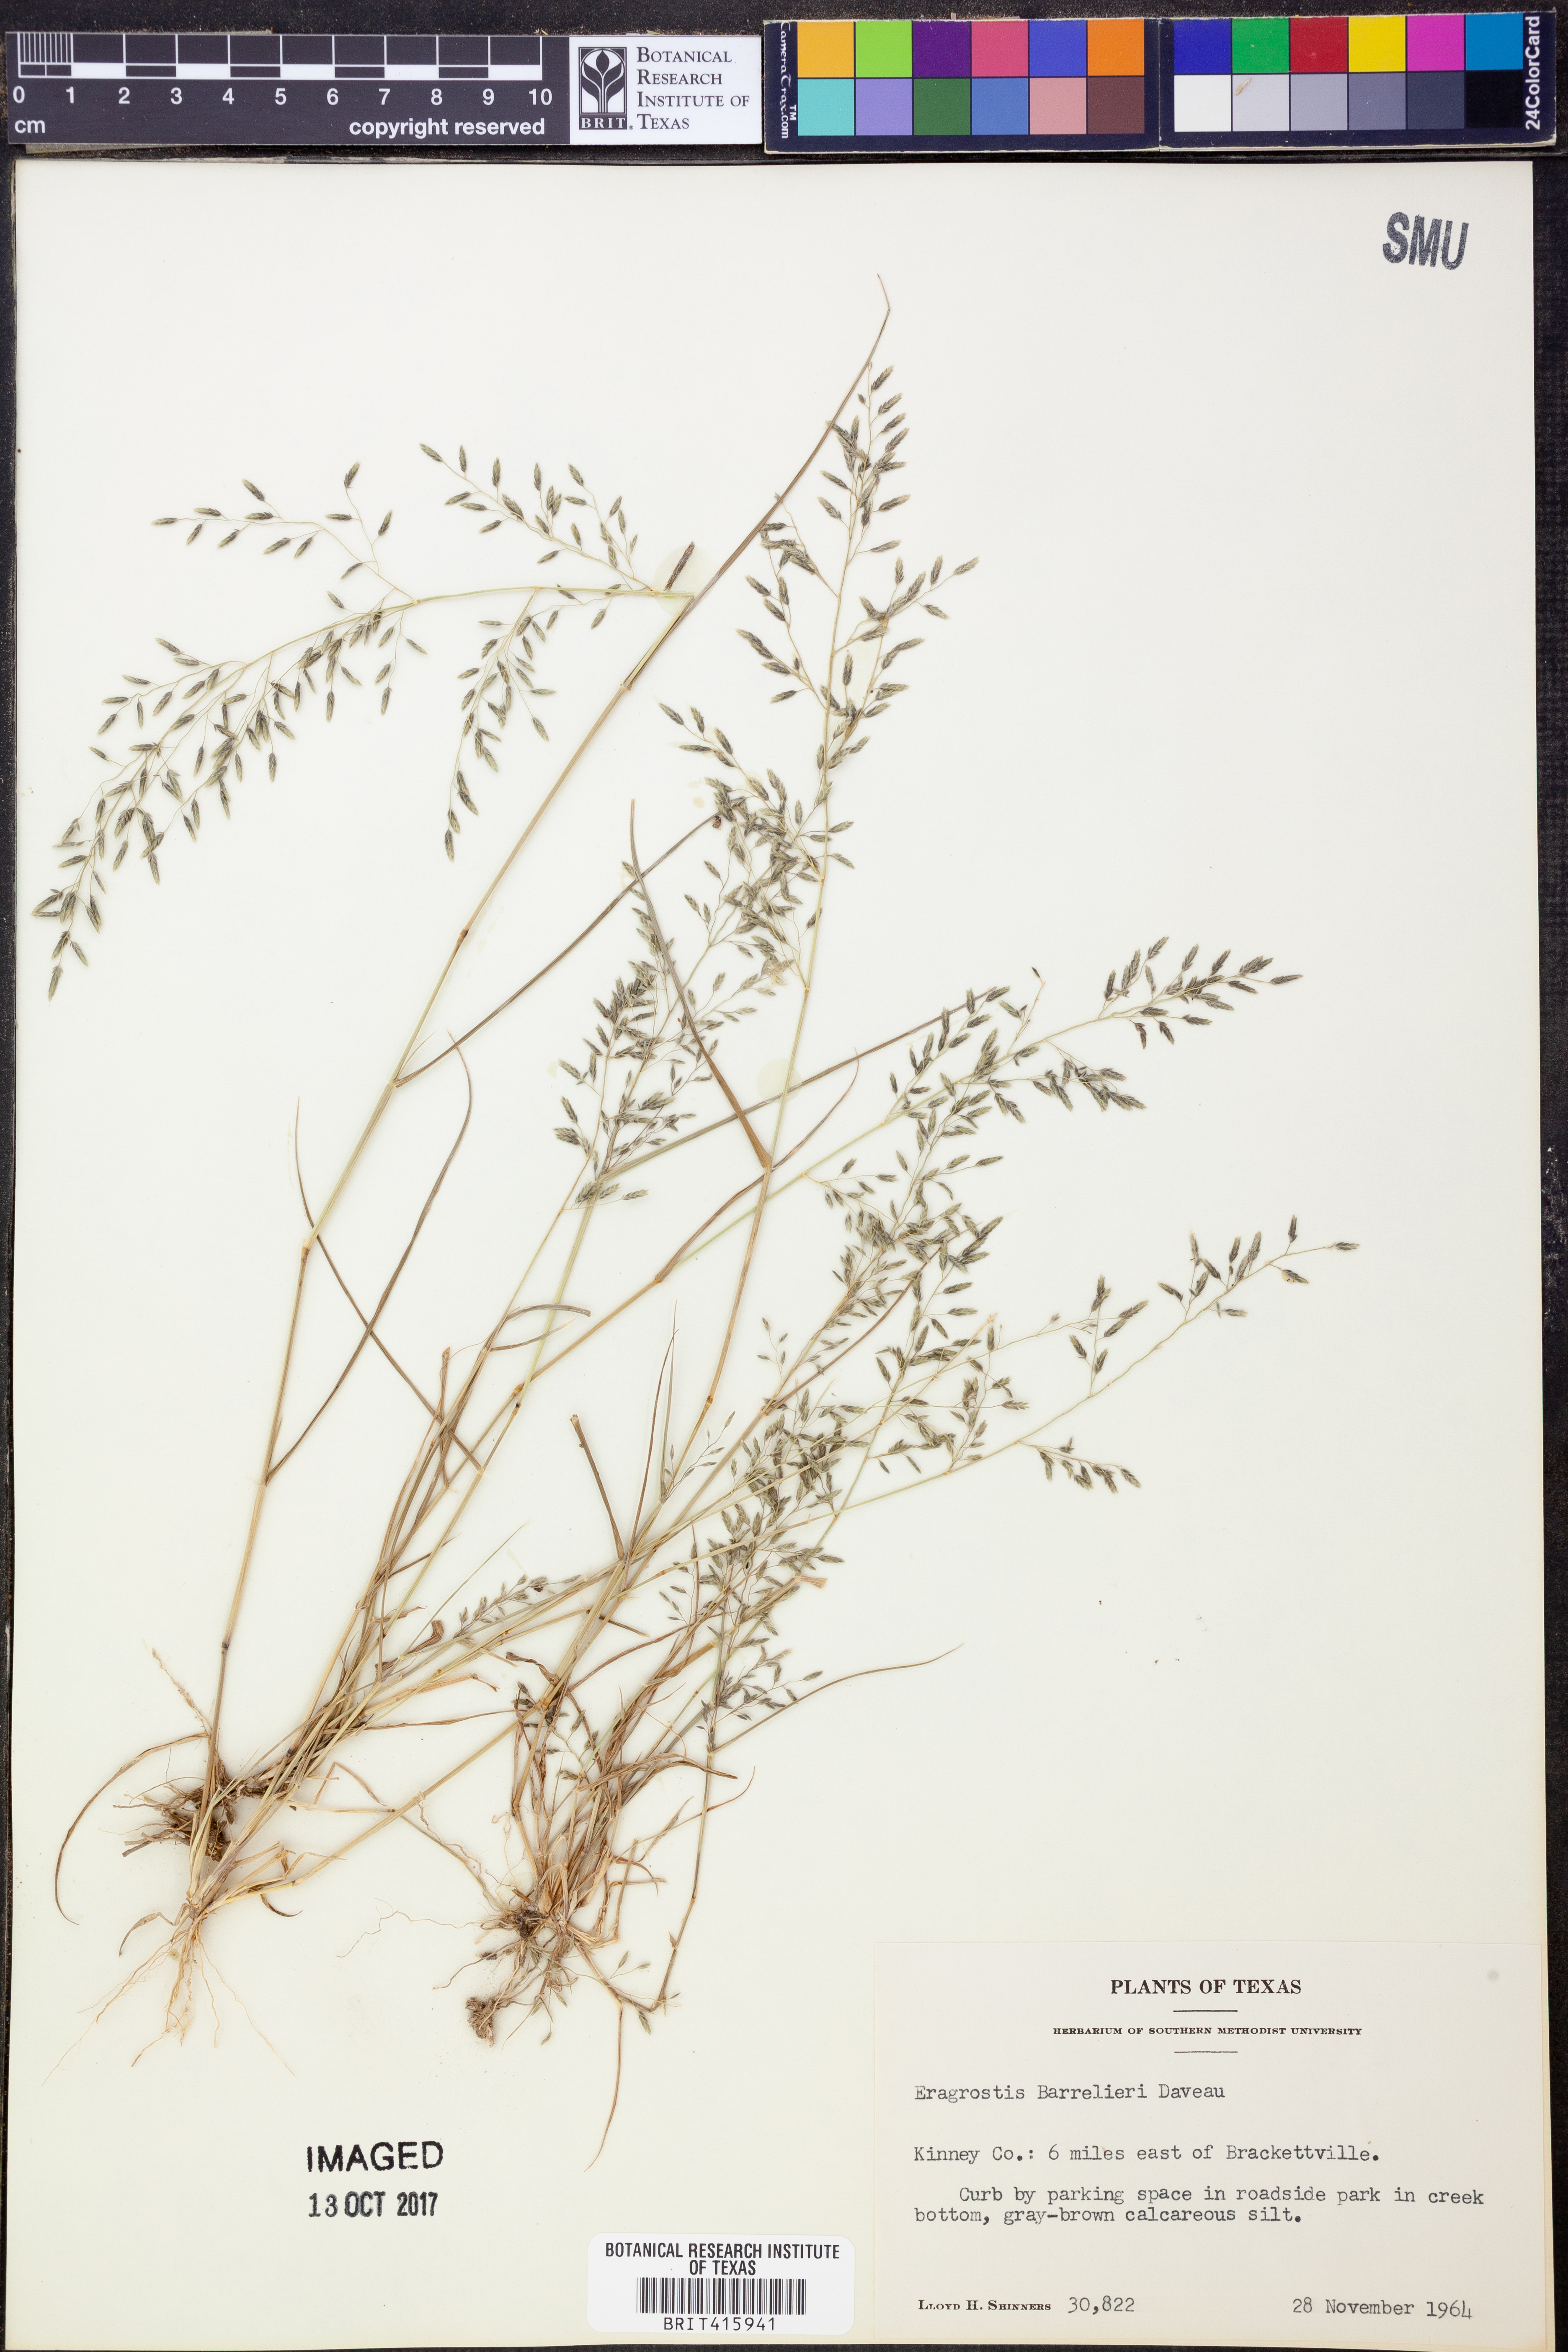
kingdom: Plantae
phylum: Tracheophyta
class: Liliopsida
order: Poales
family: Poaceae
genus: Eragrostis
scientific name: Eragrostis barrelieri
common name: Mediterranean lovegrass
